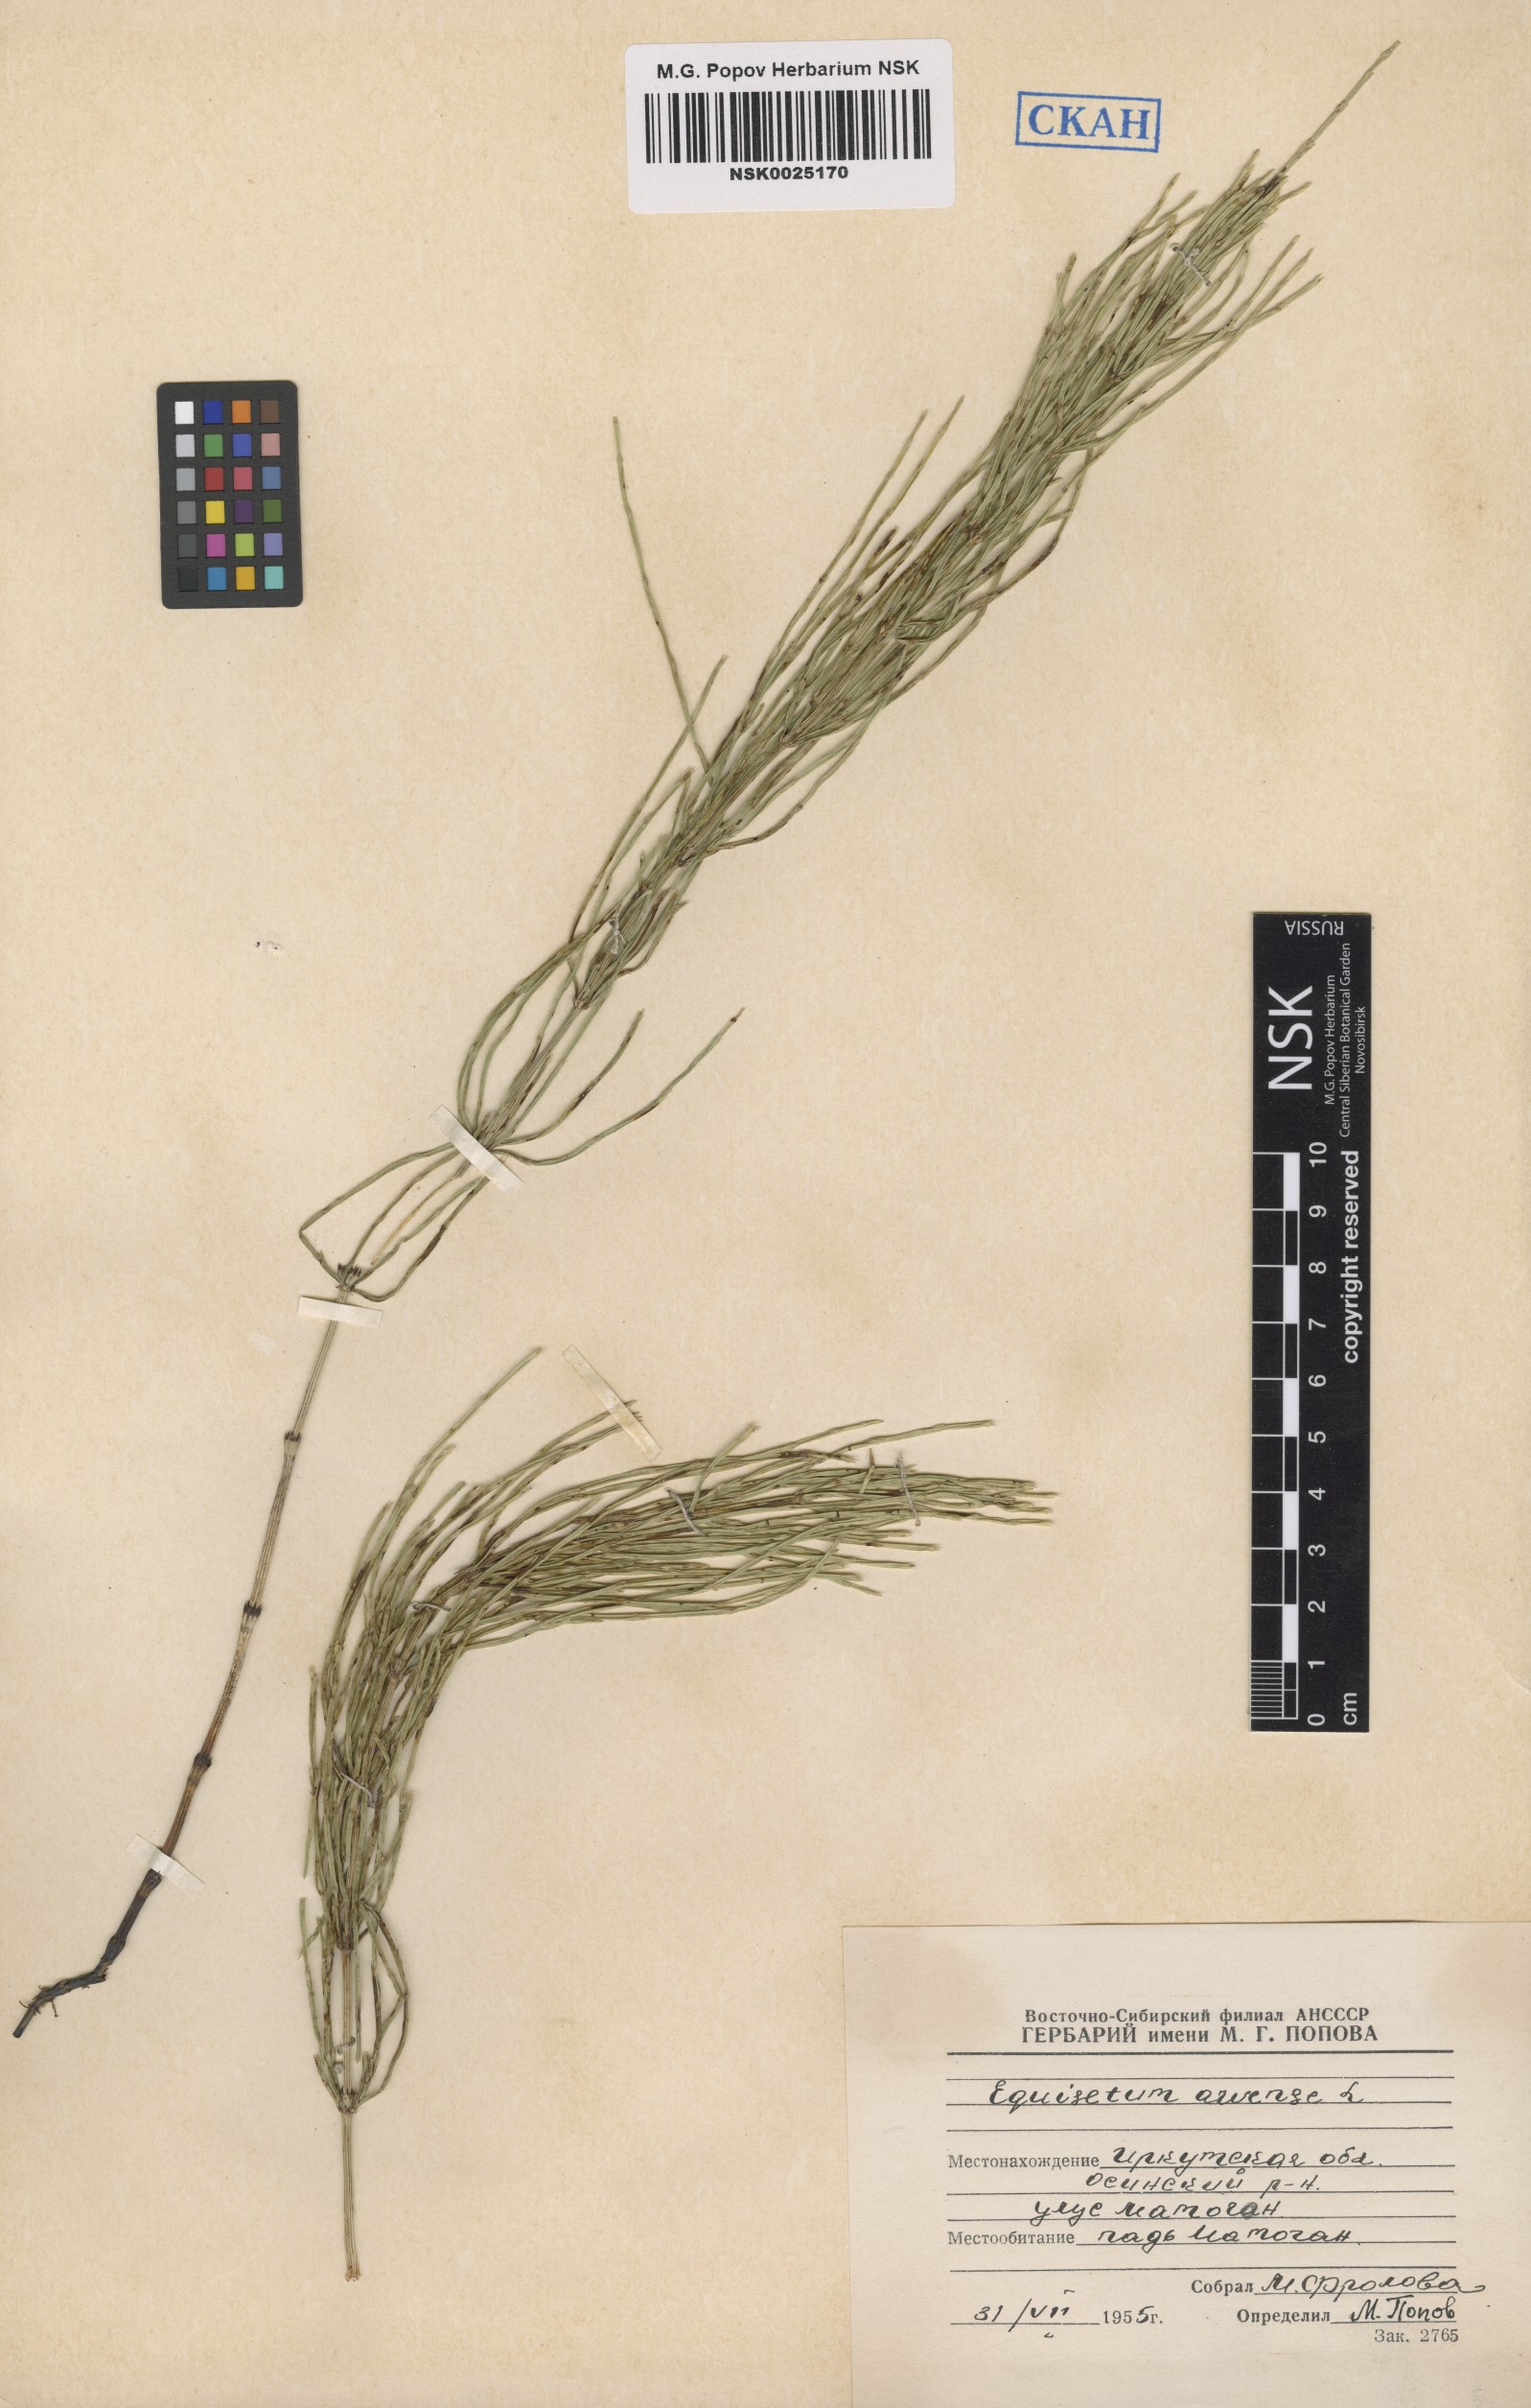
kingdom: Plantae
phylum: Tracheophyta
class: Polypodiopsida
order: Equisetales
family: Equisetaceae
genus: Equisetum
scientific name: Equisetum arvense
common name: Field horsetail
